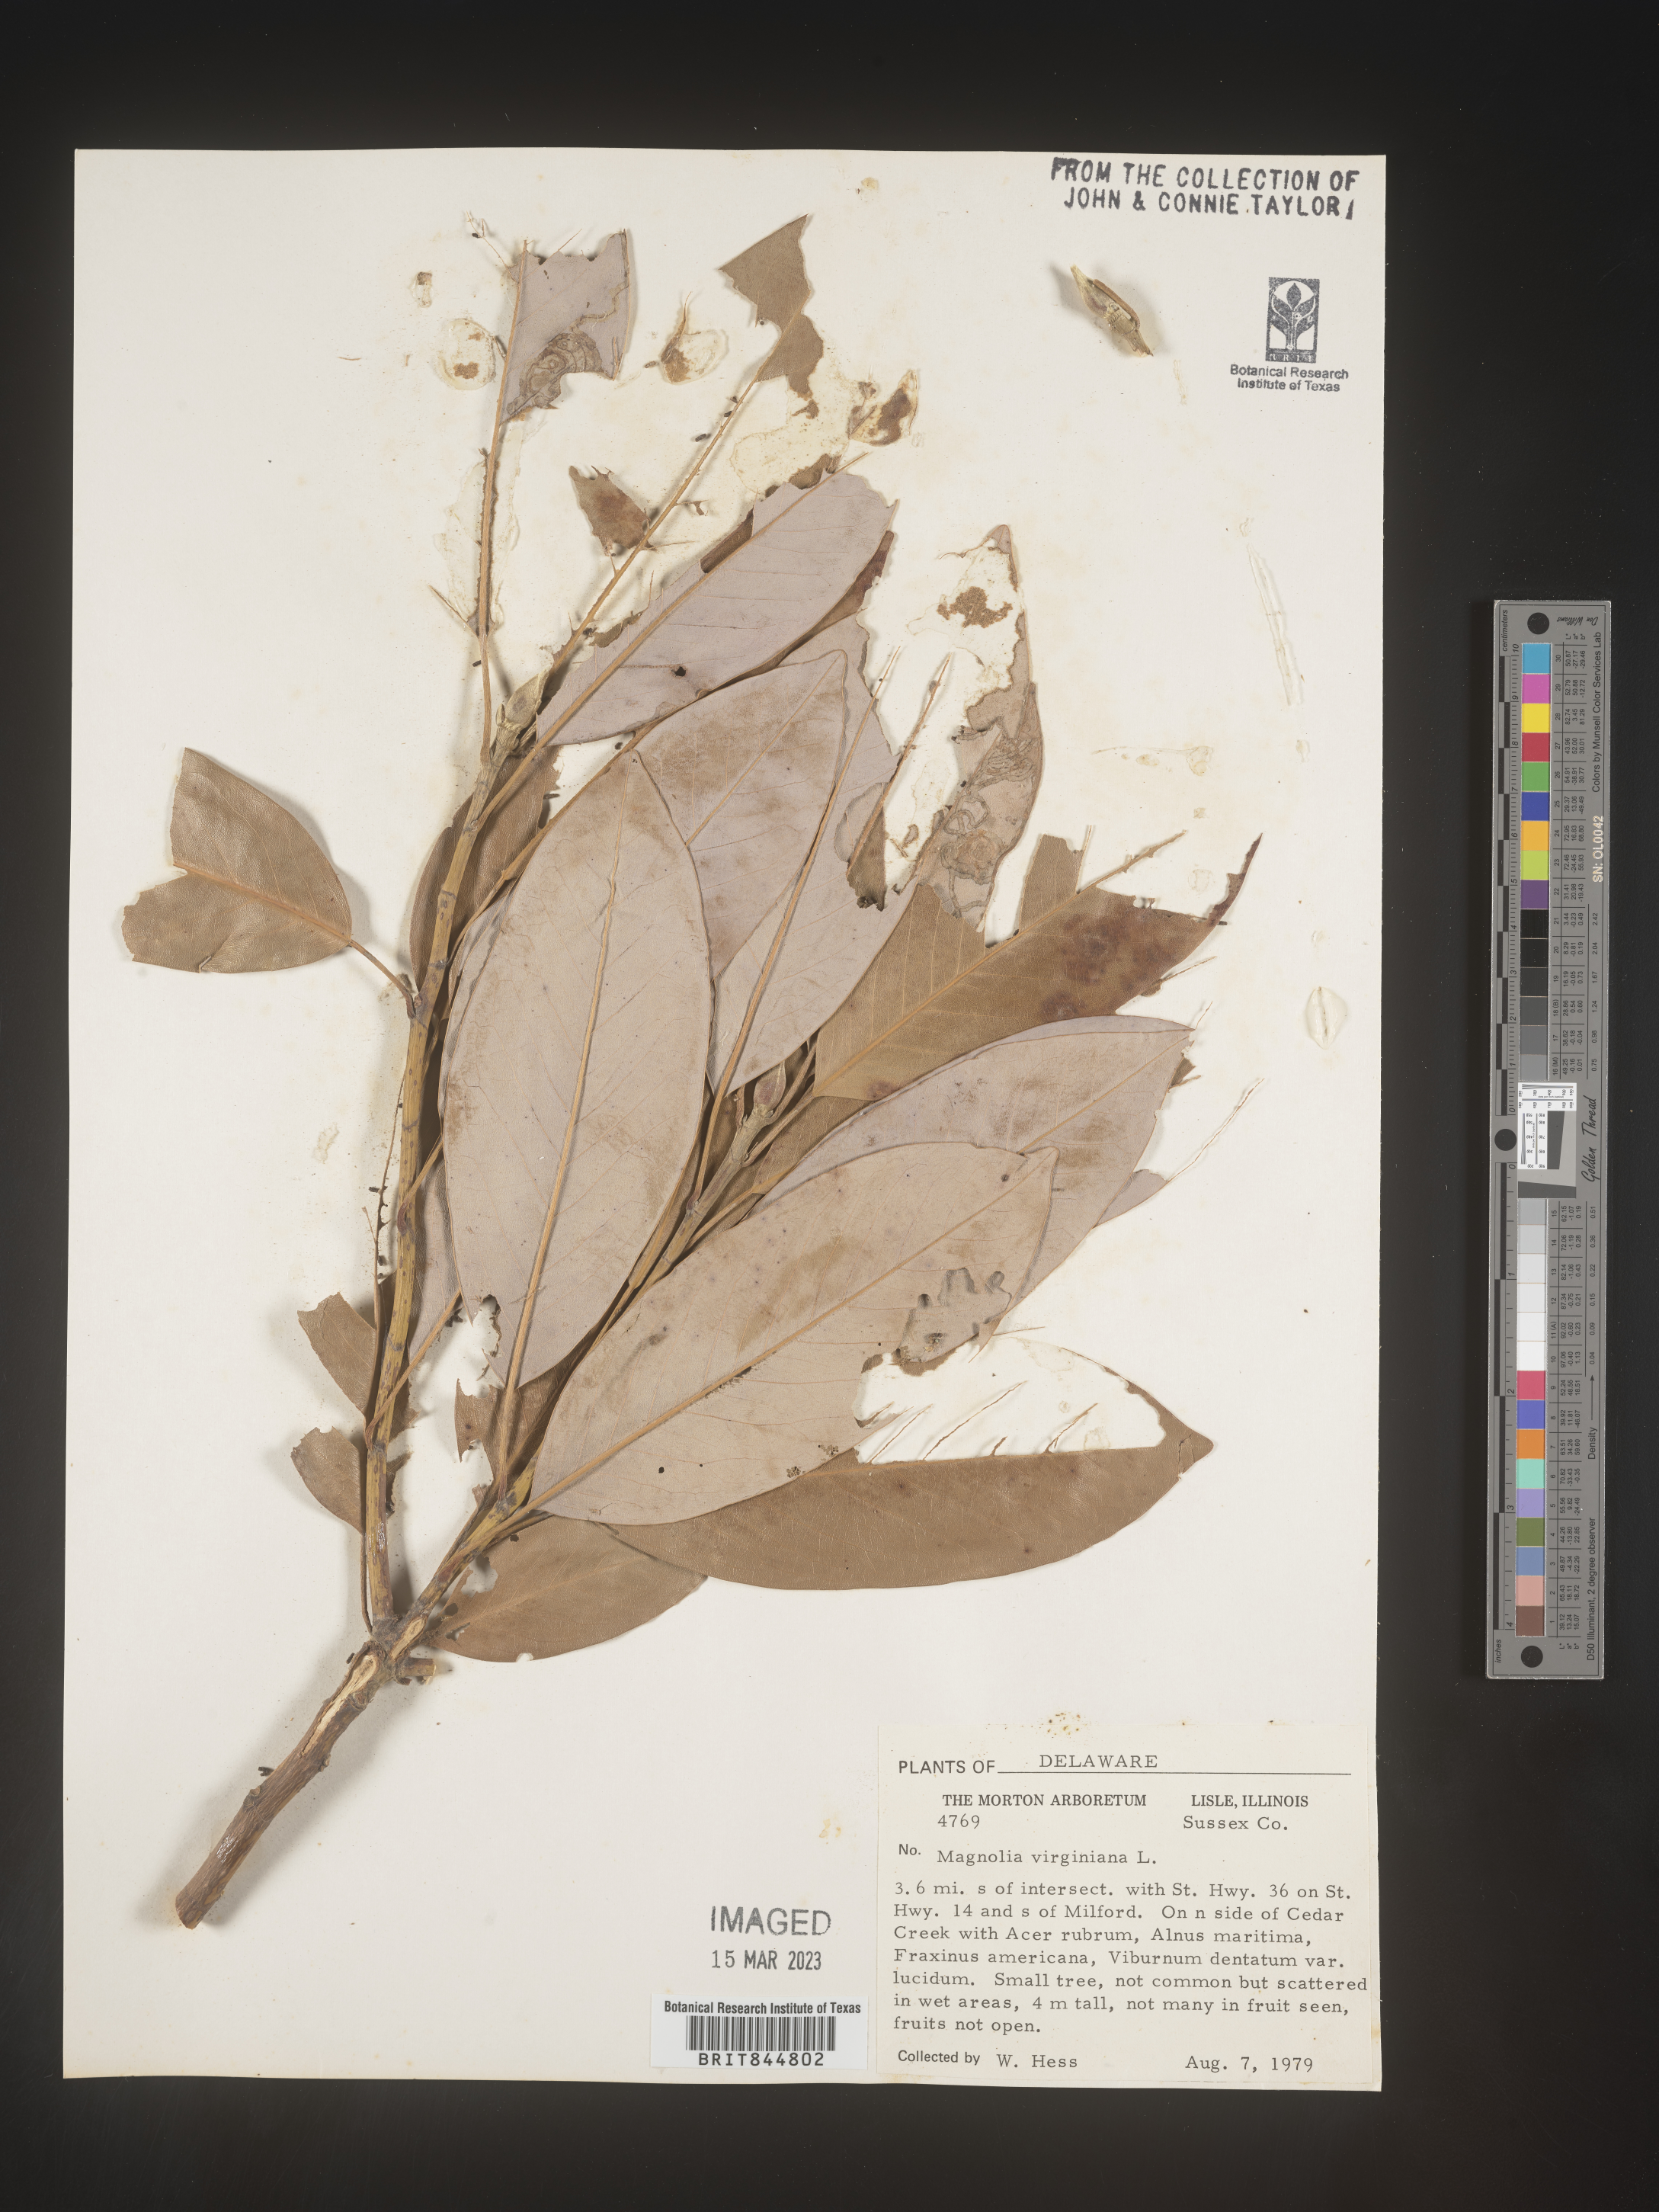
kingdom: Plantae
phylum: Tracheophyta
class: Magnoliopsida
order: Magnoliales
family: Magnoliaceae
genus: Magnolia
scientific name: Magnolia virginiana
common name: Swamp bay
